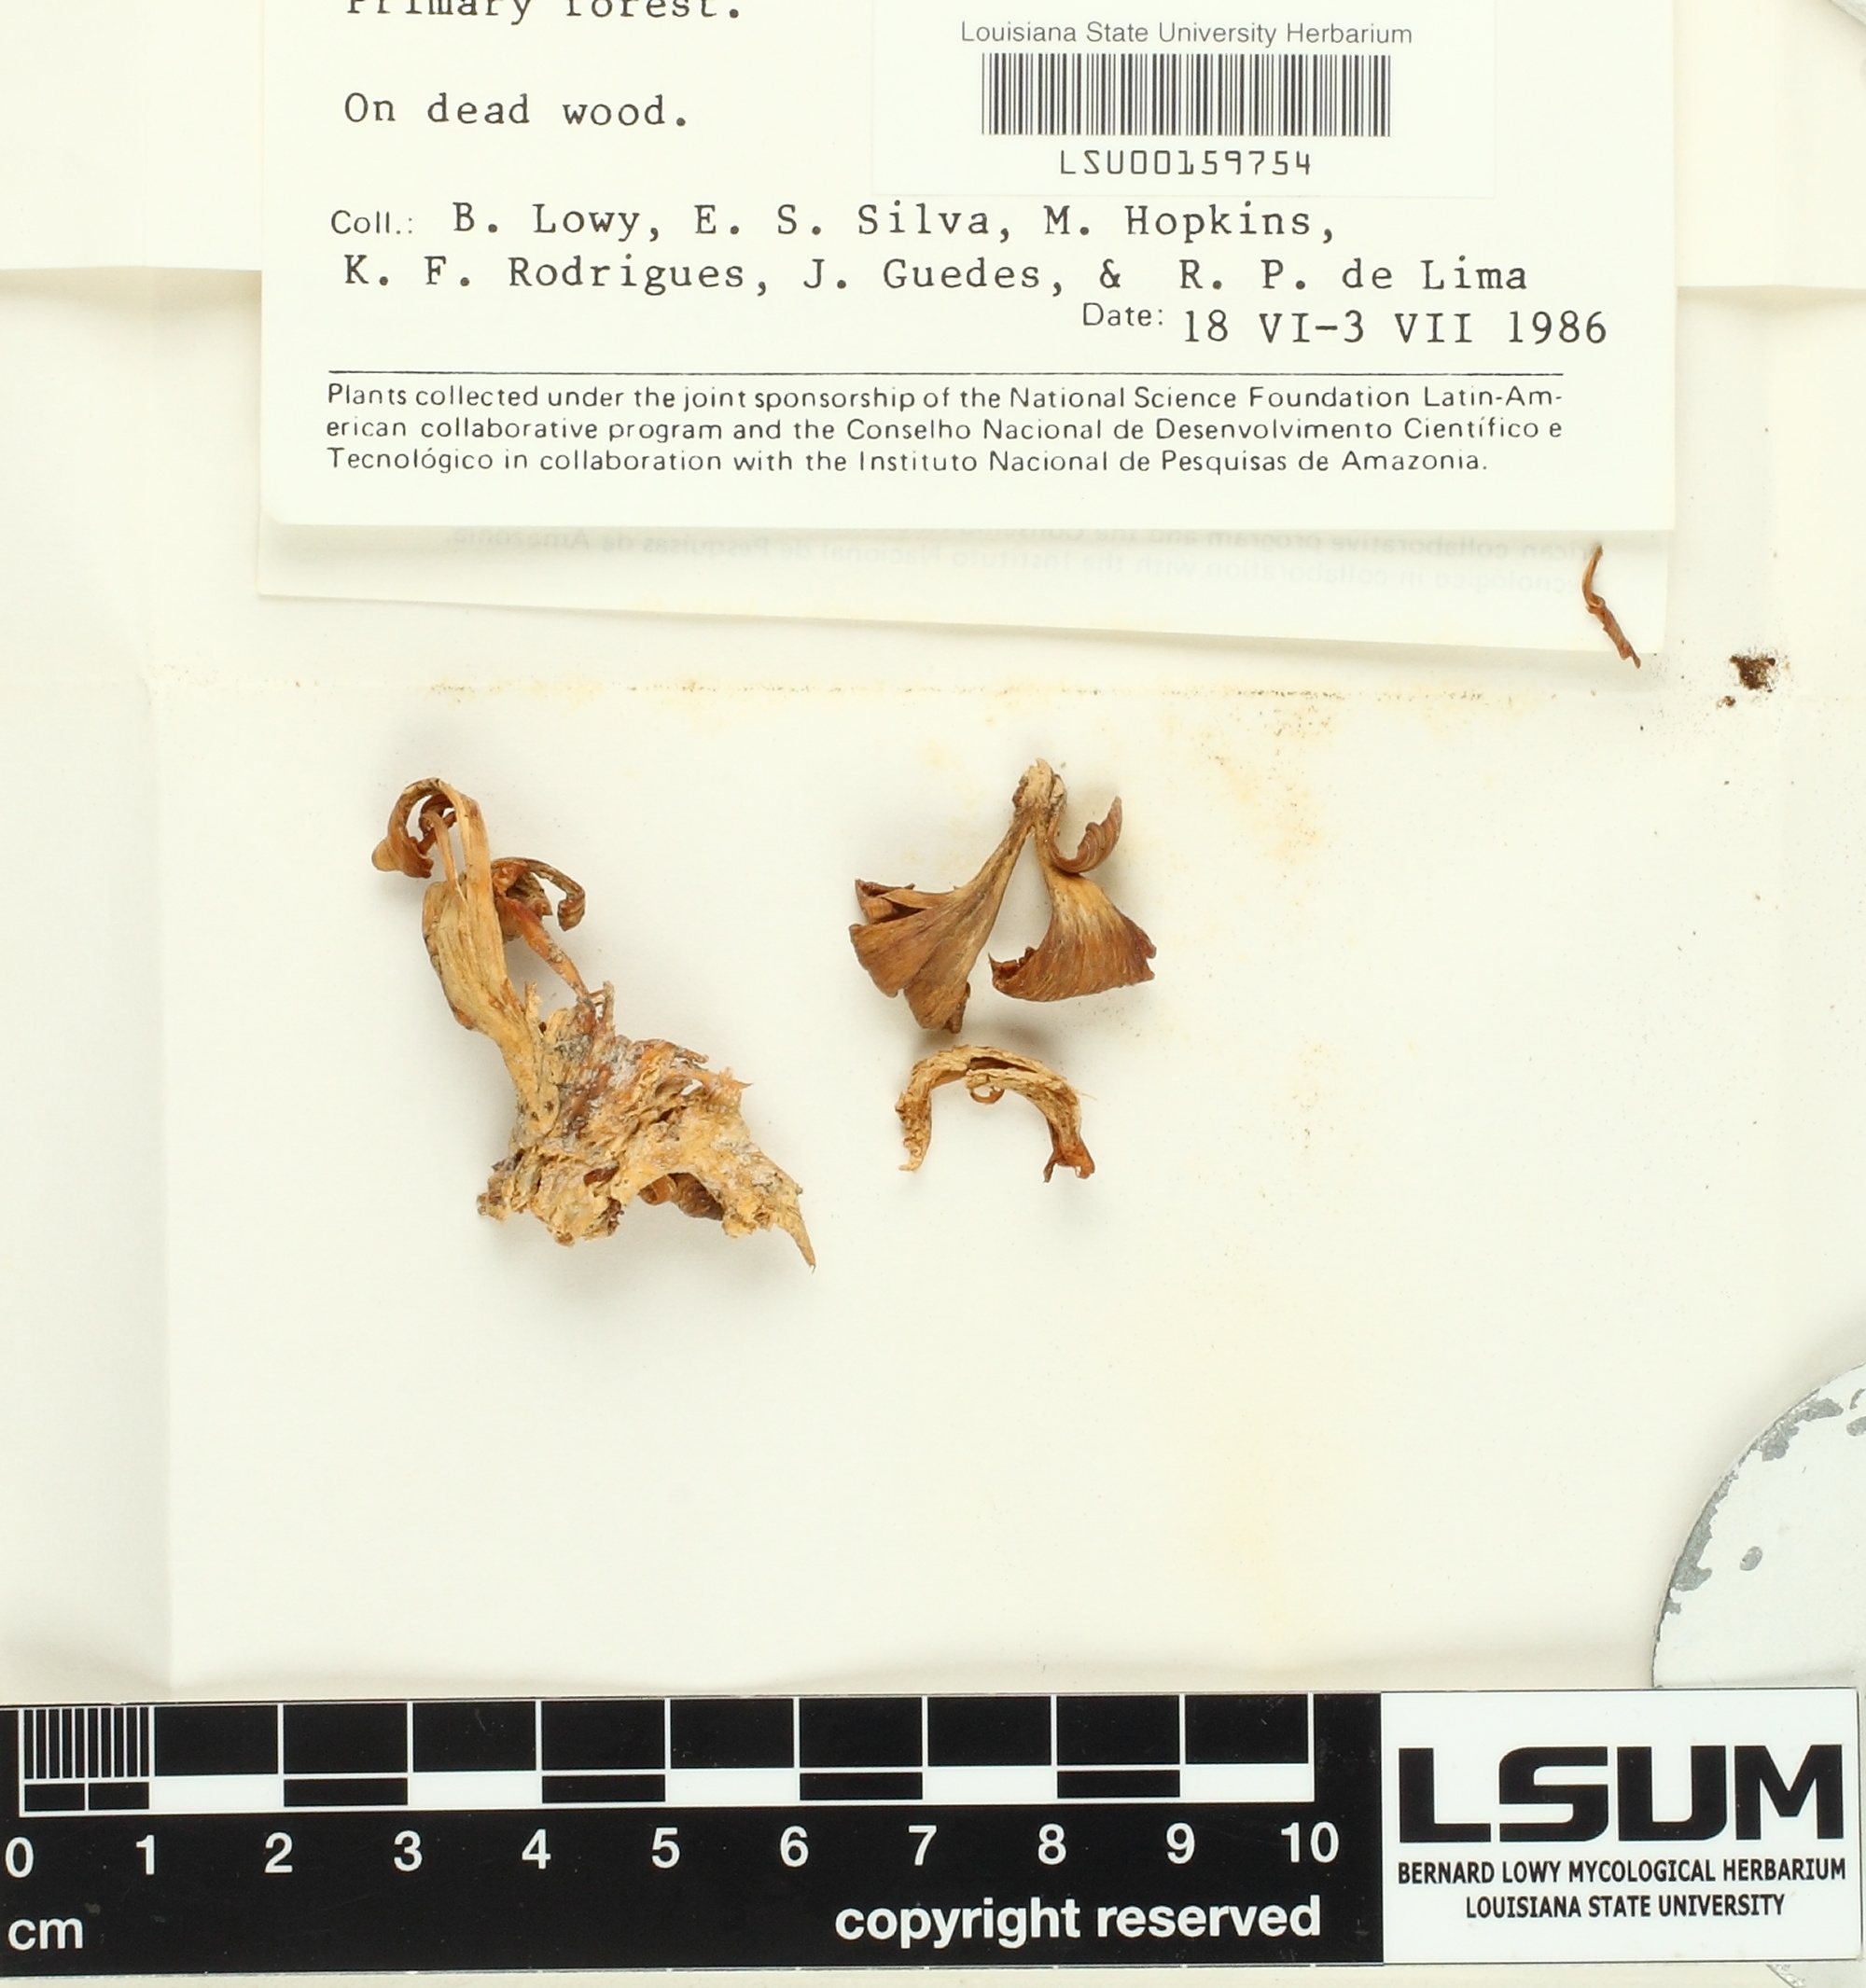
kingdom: Fungi
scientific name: Fungi
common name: Fungi
